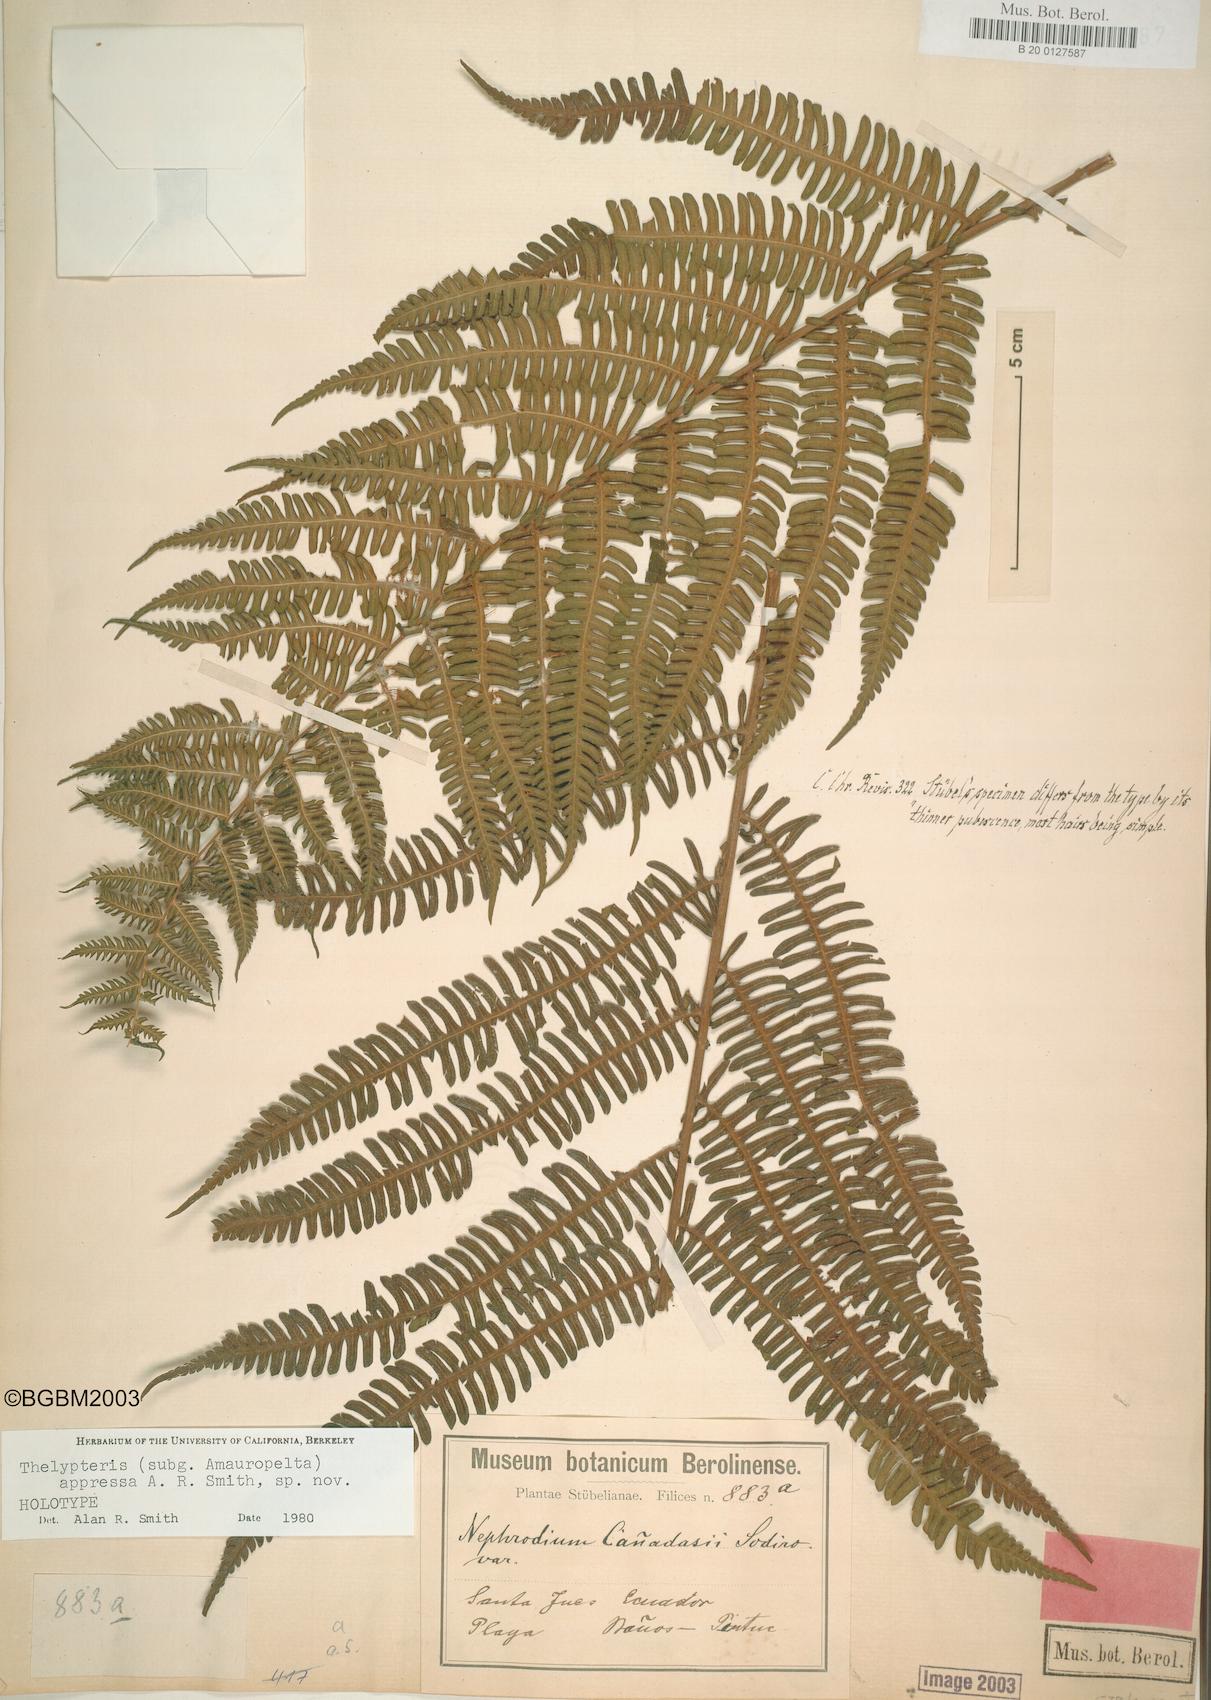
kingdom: Plantae
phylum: Tracheophyta
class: Polypodiopsida
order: Polypodiales
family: Thelypteridaceae
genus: Amauropelta
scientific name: Amauropelta appressa
